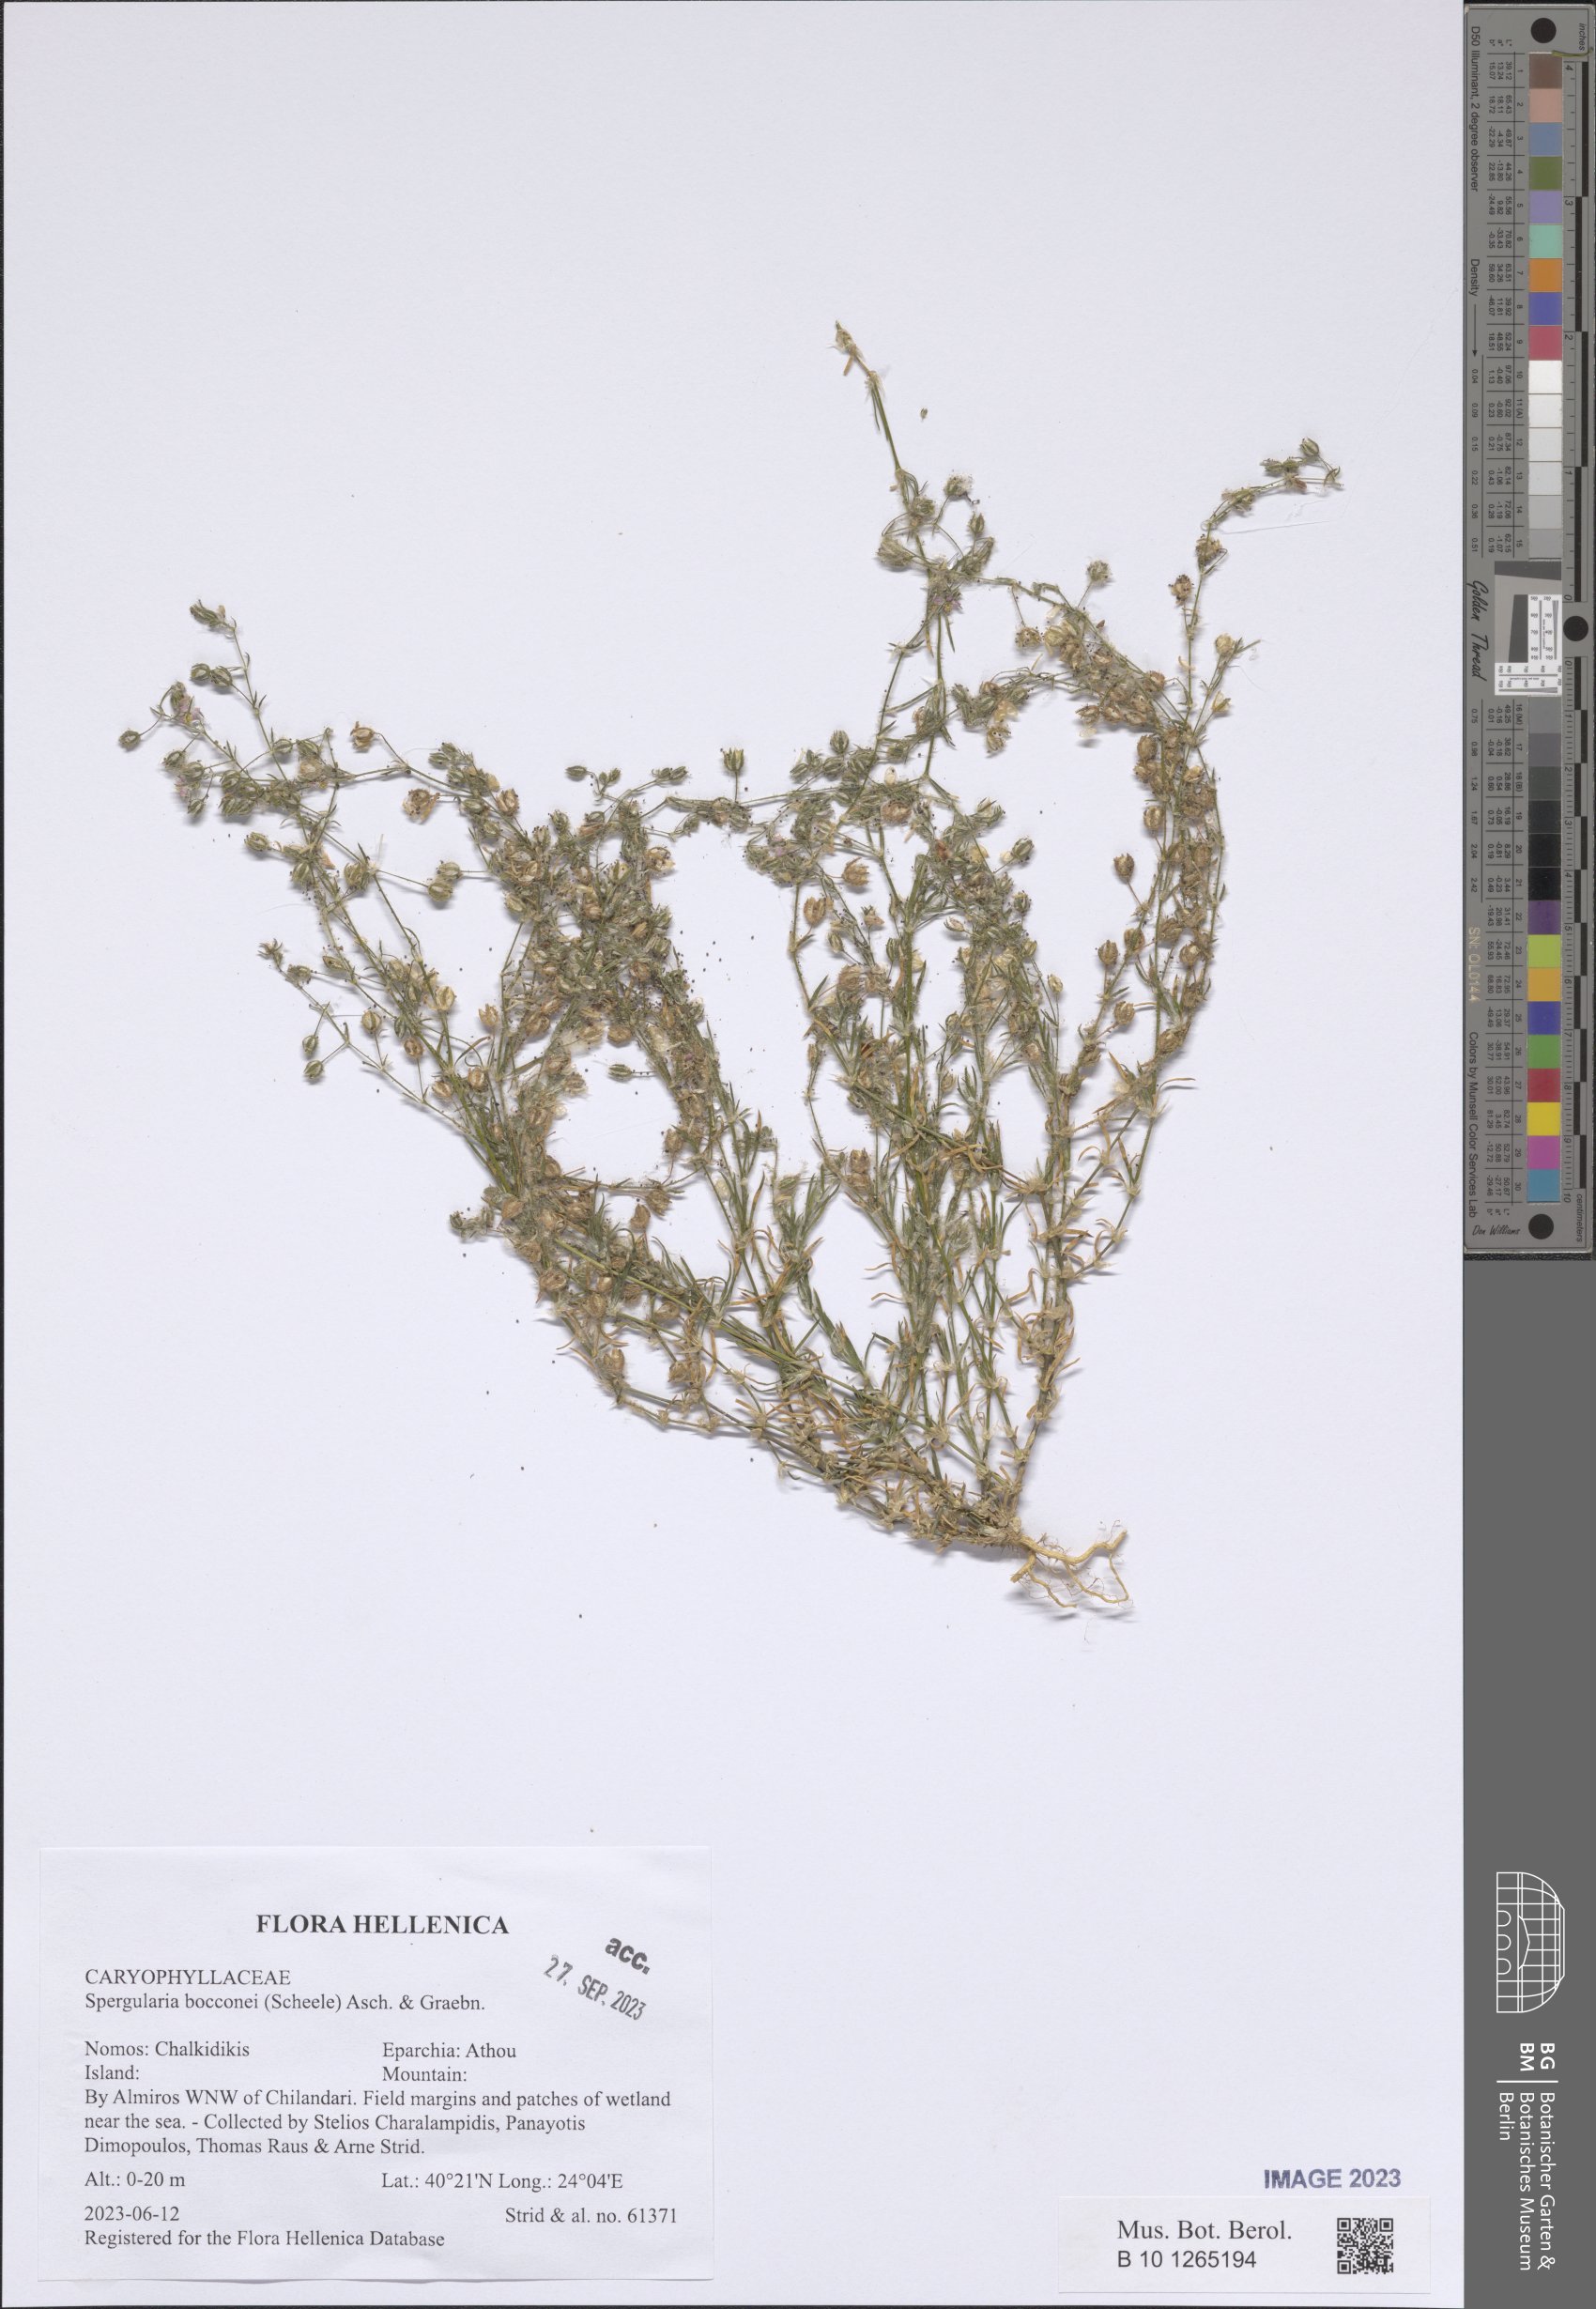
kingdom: Plantae
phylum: Tracheophyta
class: Magnoliopsida
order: Caryophyllales
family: Caryophyllaceae
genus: Spergularia
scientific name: Spergularia bocconei
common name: Greek sea-spurrey
